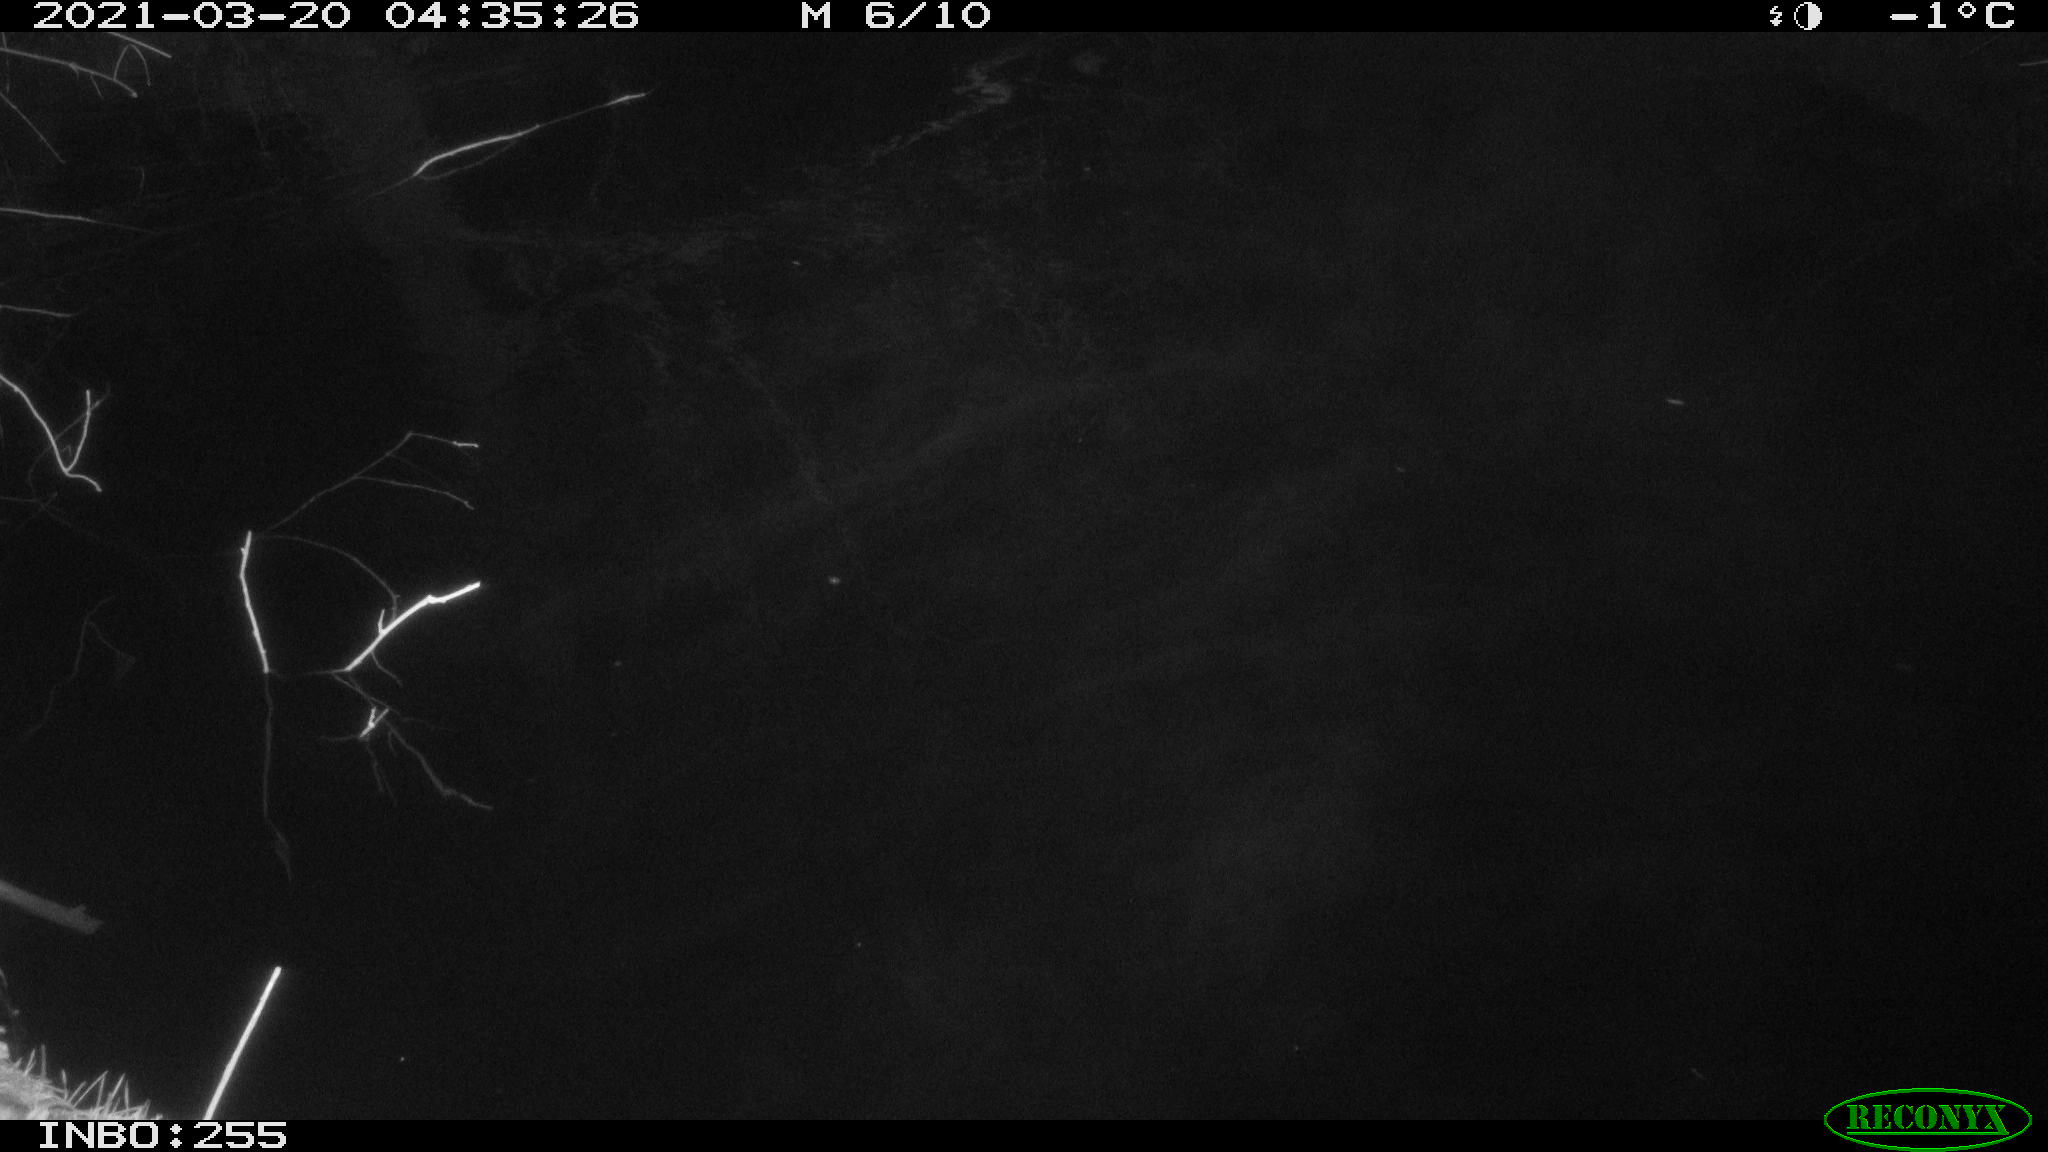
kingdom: Animalia
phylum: Chordata
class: Aves
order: Anseriformes
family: Anatidae
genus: Anas
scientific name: Anas platyrhynchos
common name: Mallard
